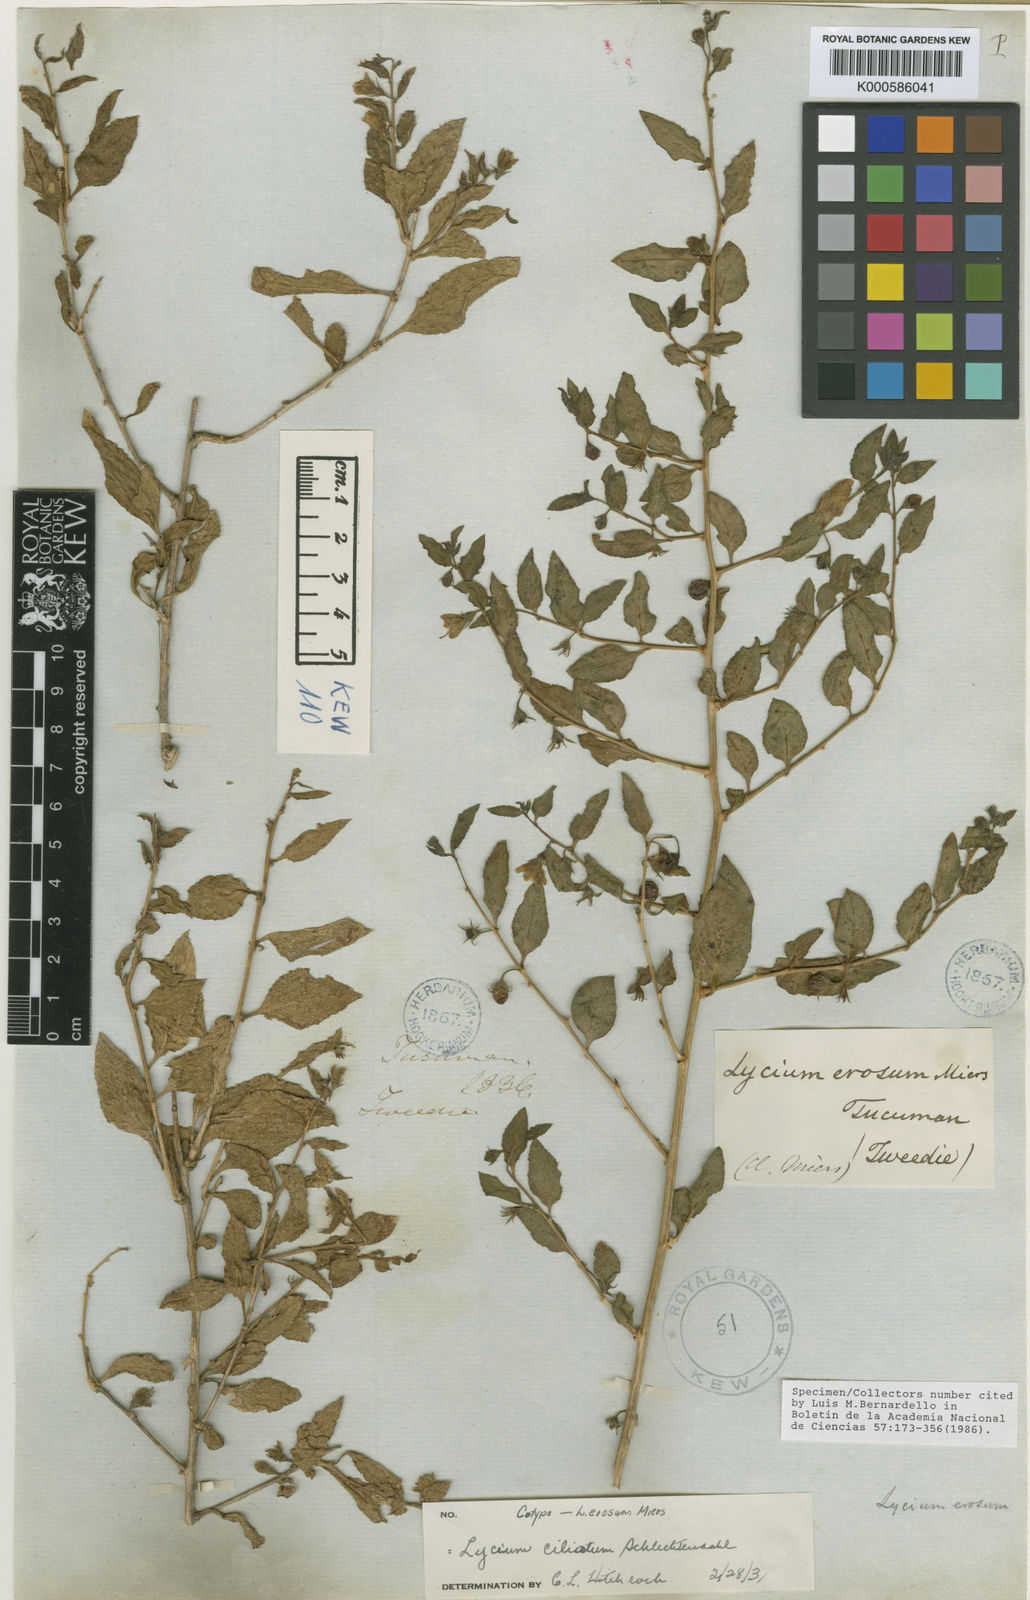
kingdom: Plantae
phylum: Tracheophyta
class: Magnoliopsida
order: Solanales
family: Solanaceae
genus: Lycium
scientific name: Lycium ciliatum
